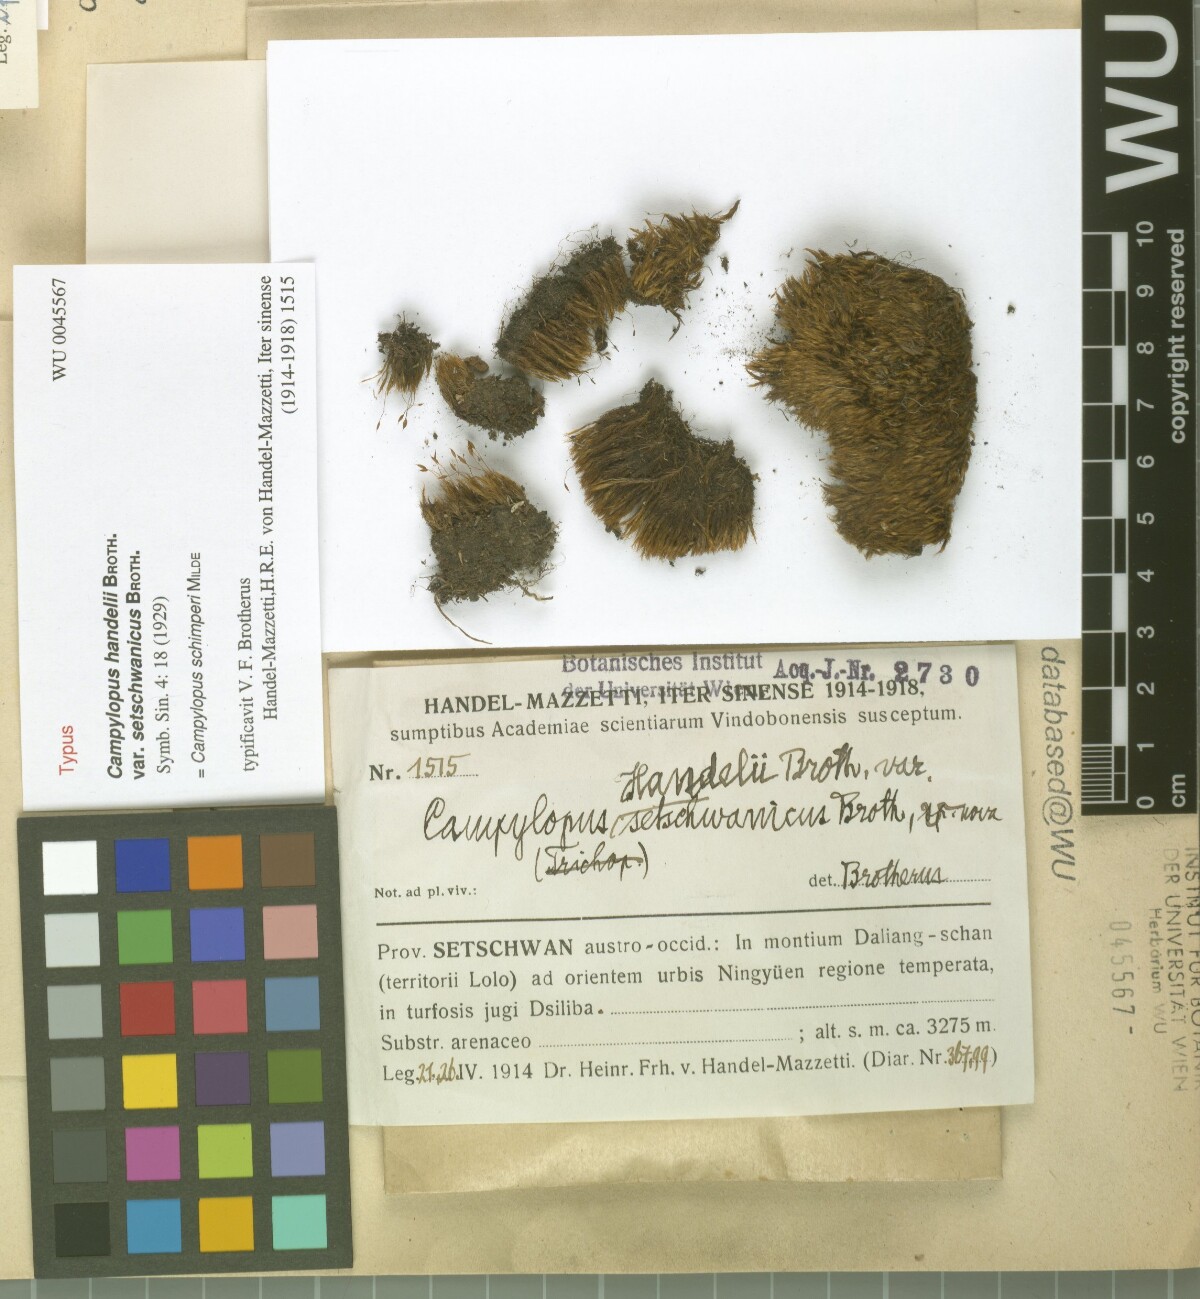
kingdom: Plantae
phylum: Bryophyta
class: Bryopsida
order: Dicranales
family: Leucobryaceae
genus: Campylopus
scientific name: Campylopus schimperi
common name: Schimper's swan-neck moss
